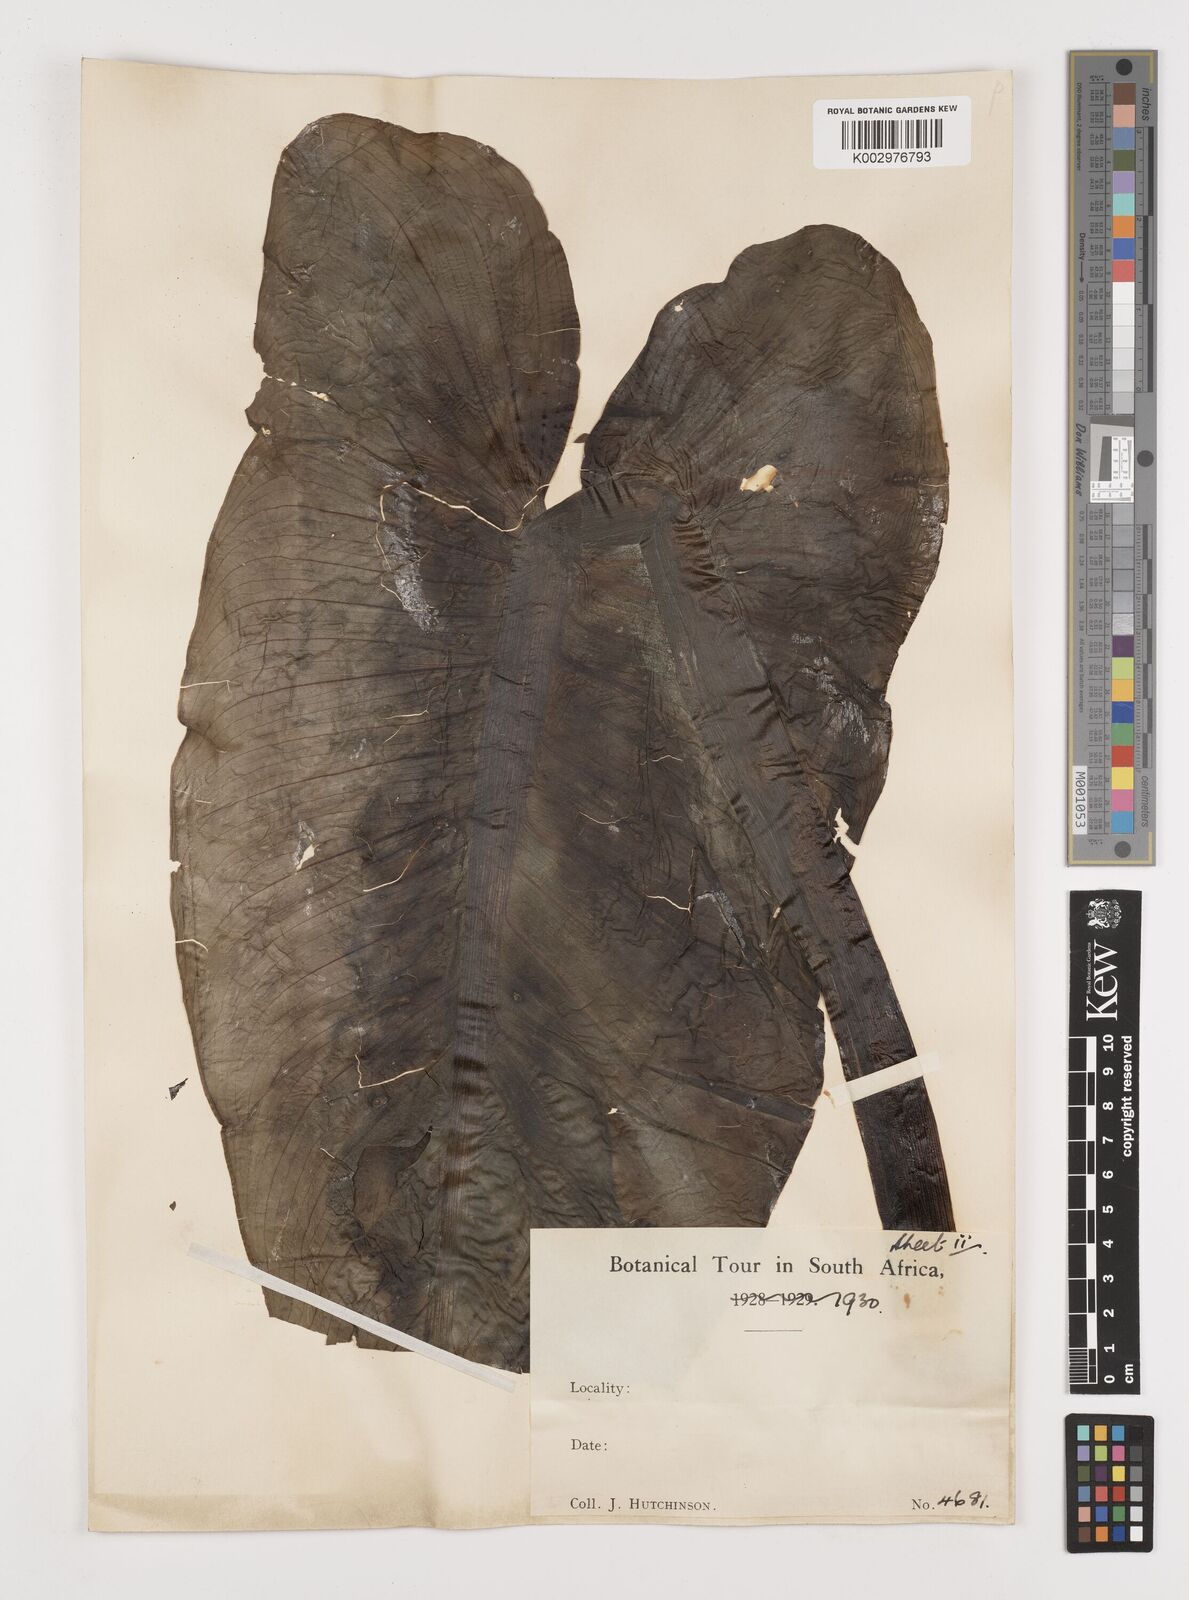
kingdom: Plantae
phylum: Tracheophyta
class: Liliopsida
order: Alismatales
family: Araceae
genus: Zantedeschia
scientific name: Zantedeschia aethiopica
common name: Altar-lily
